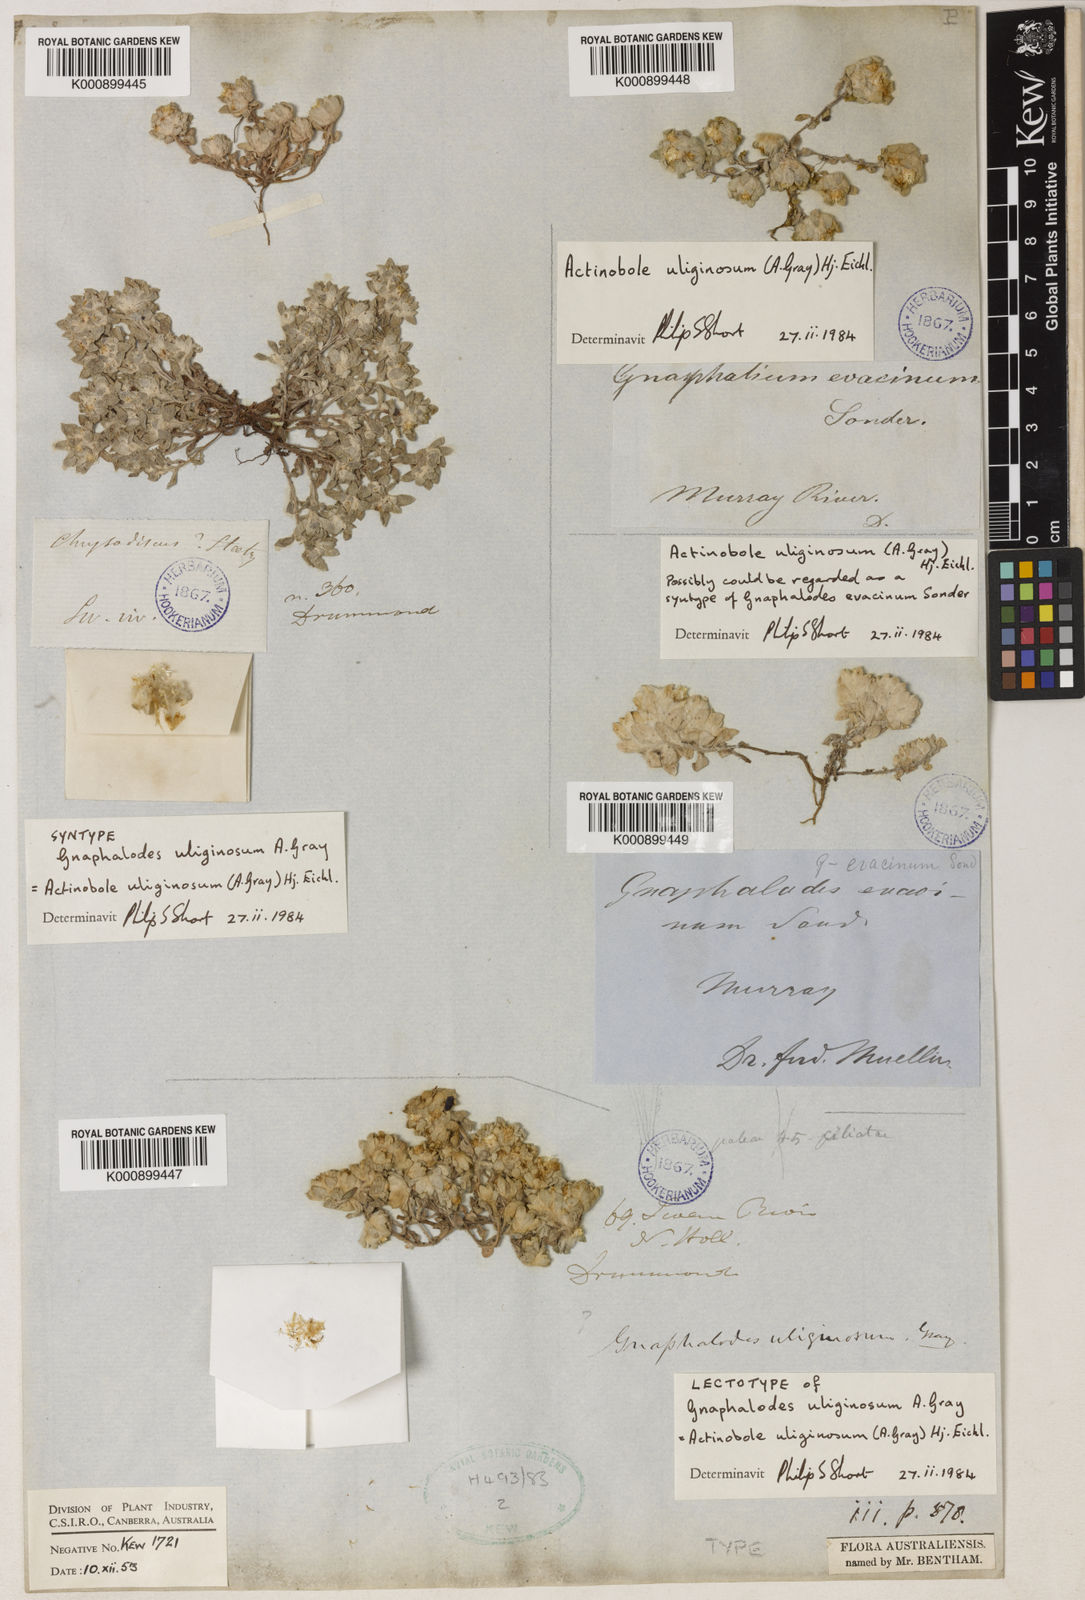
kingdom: Plantae
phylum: Tracheophyta
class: Magnoliopsida
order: Asterales
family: Asteraceae
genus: Actinobole
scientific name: Actinobole uliginosum
